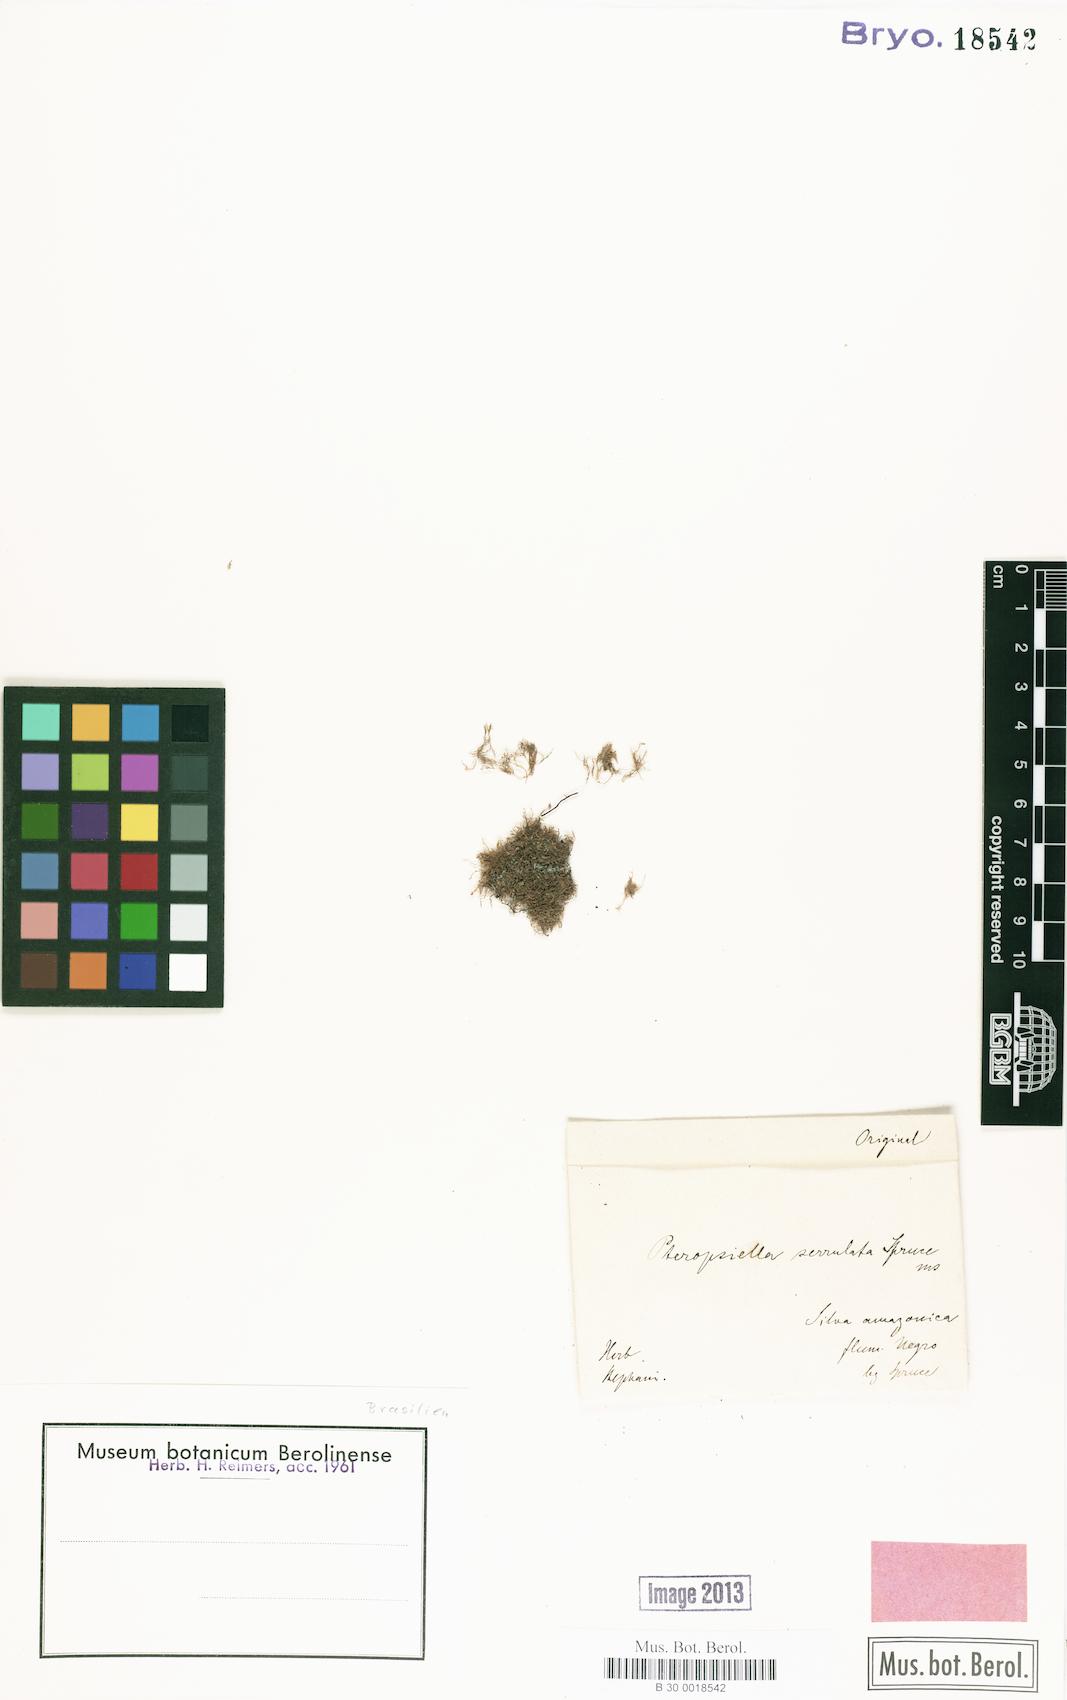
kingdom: Plantae
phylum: Marchantiophyta
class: Jungermanniopsida
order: Jungermanniales
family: Lepidoziaceae
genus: Pteropsiella
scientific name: Pteropsiella metzgeriiformis
